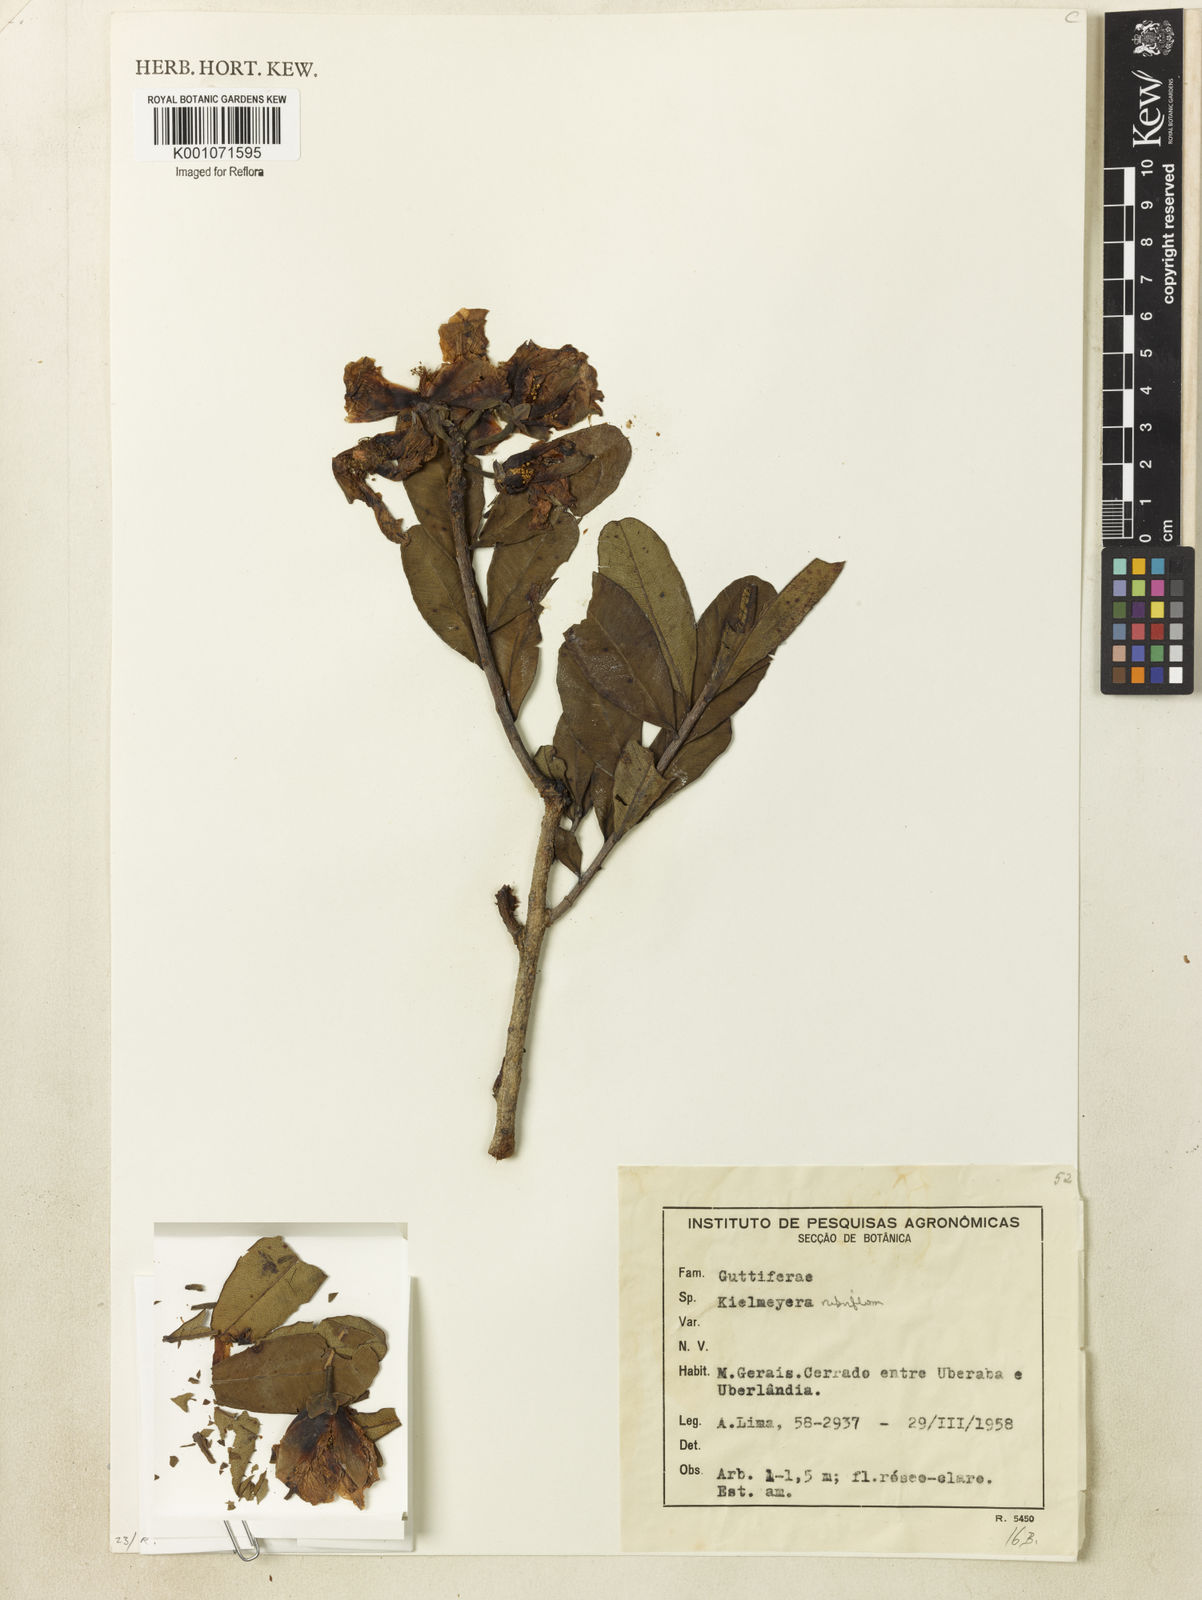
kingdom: Plantae
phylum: Tracheophyta
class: Magnoliopsida
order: Malpighiales
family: Calophyllaceae
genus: Kielmeyera
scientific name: Kielmeyera rubriflora
